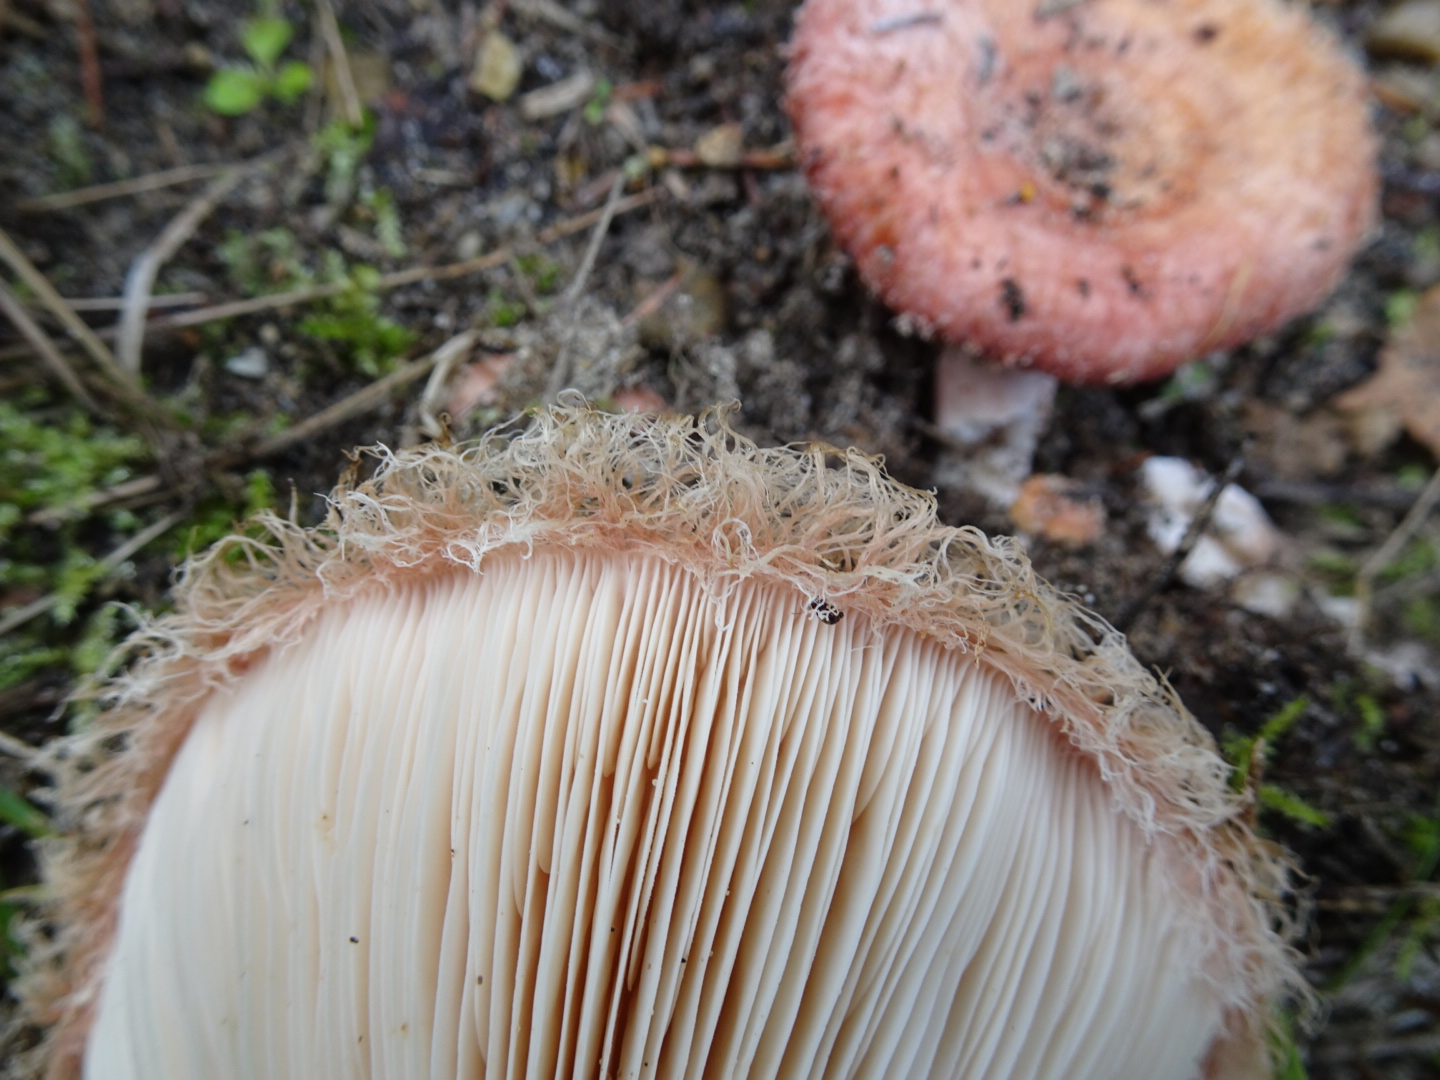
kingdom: Fungi
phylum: Basidiomycota
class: Agaricomycetes
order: Russulales
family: Russulaceae
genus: Lactarius
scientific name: Lactarius torminosus
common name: skægget mælkehat
